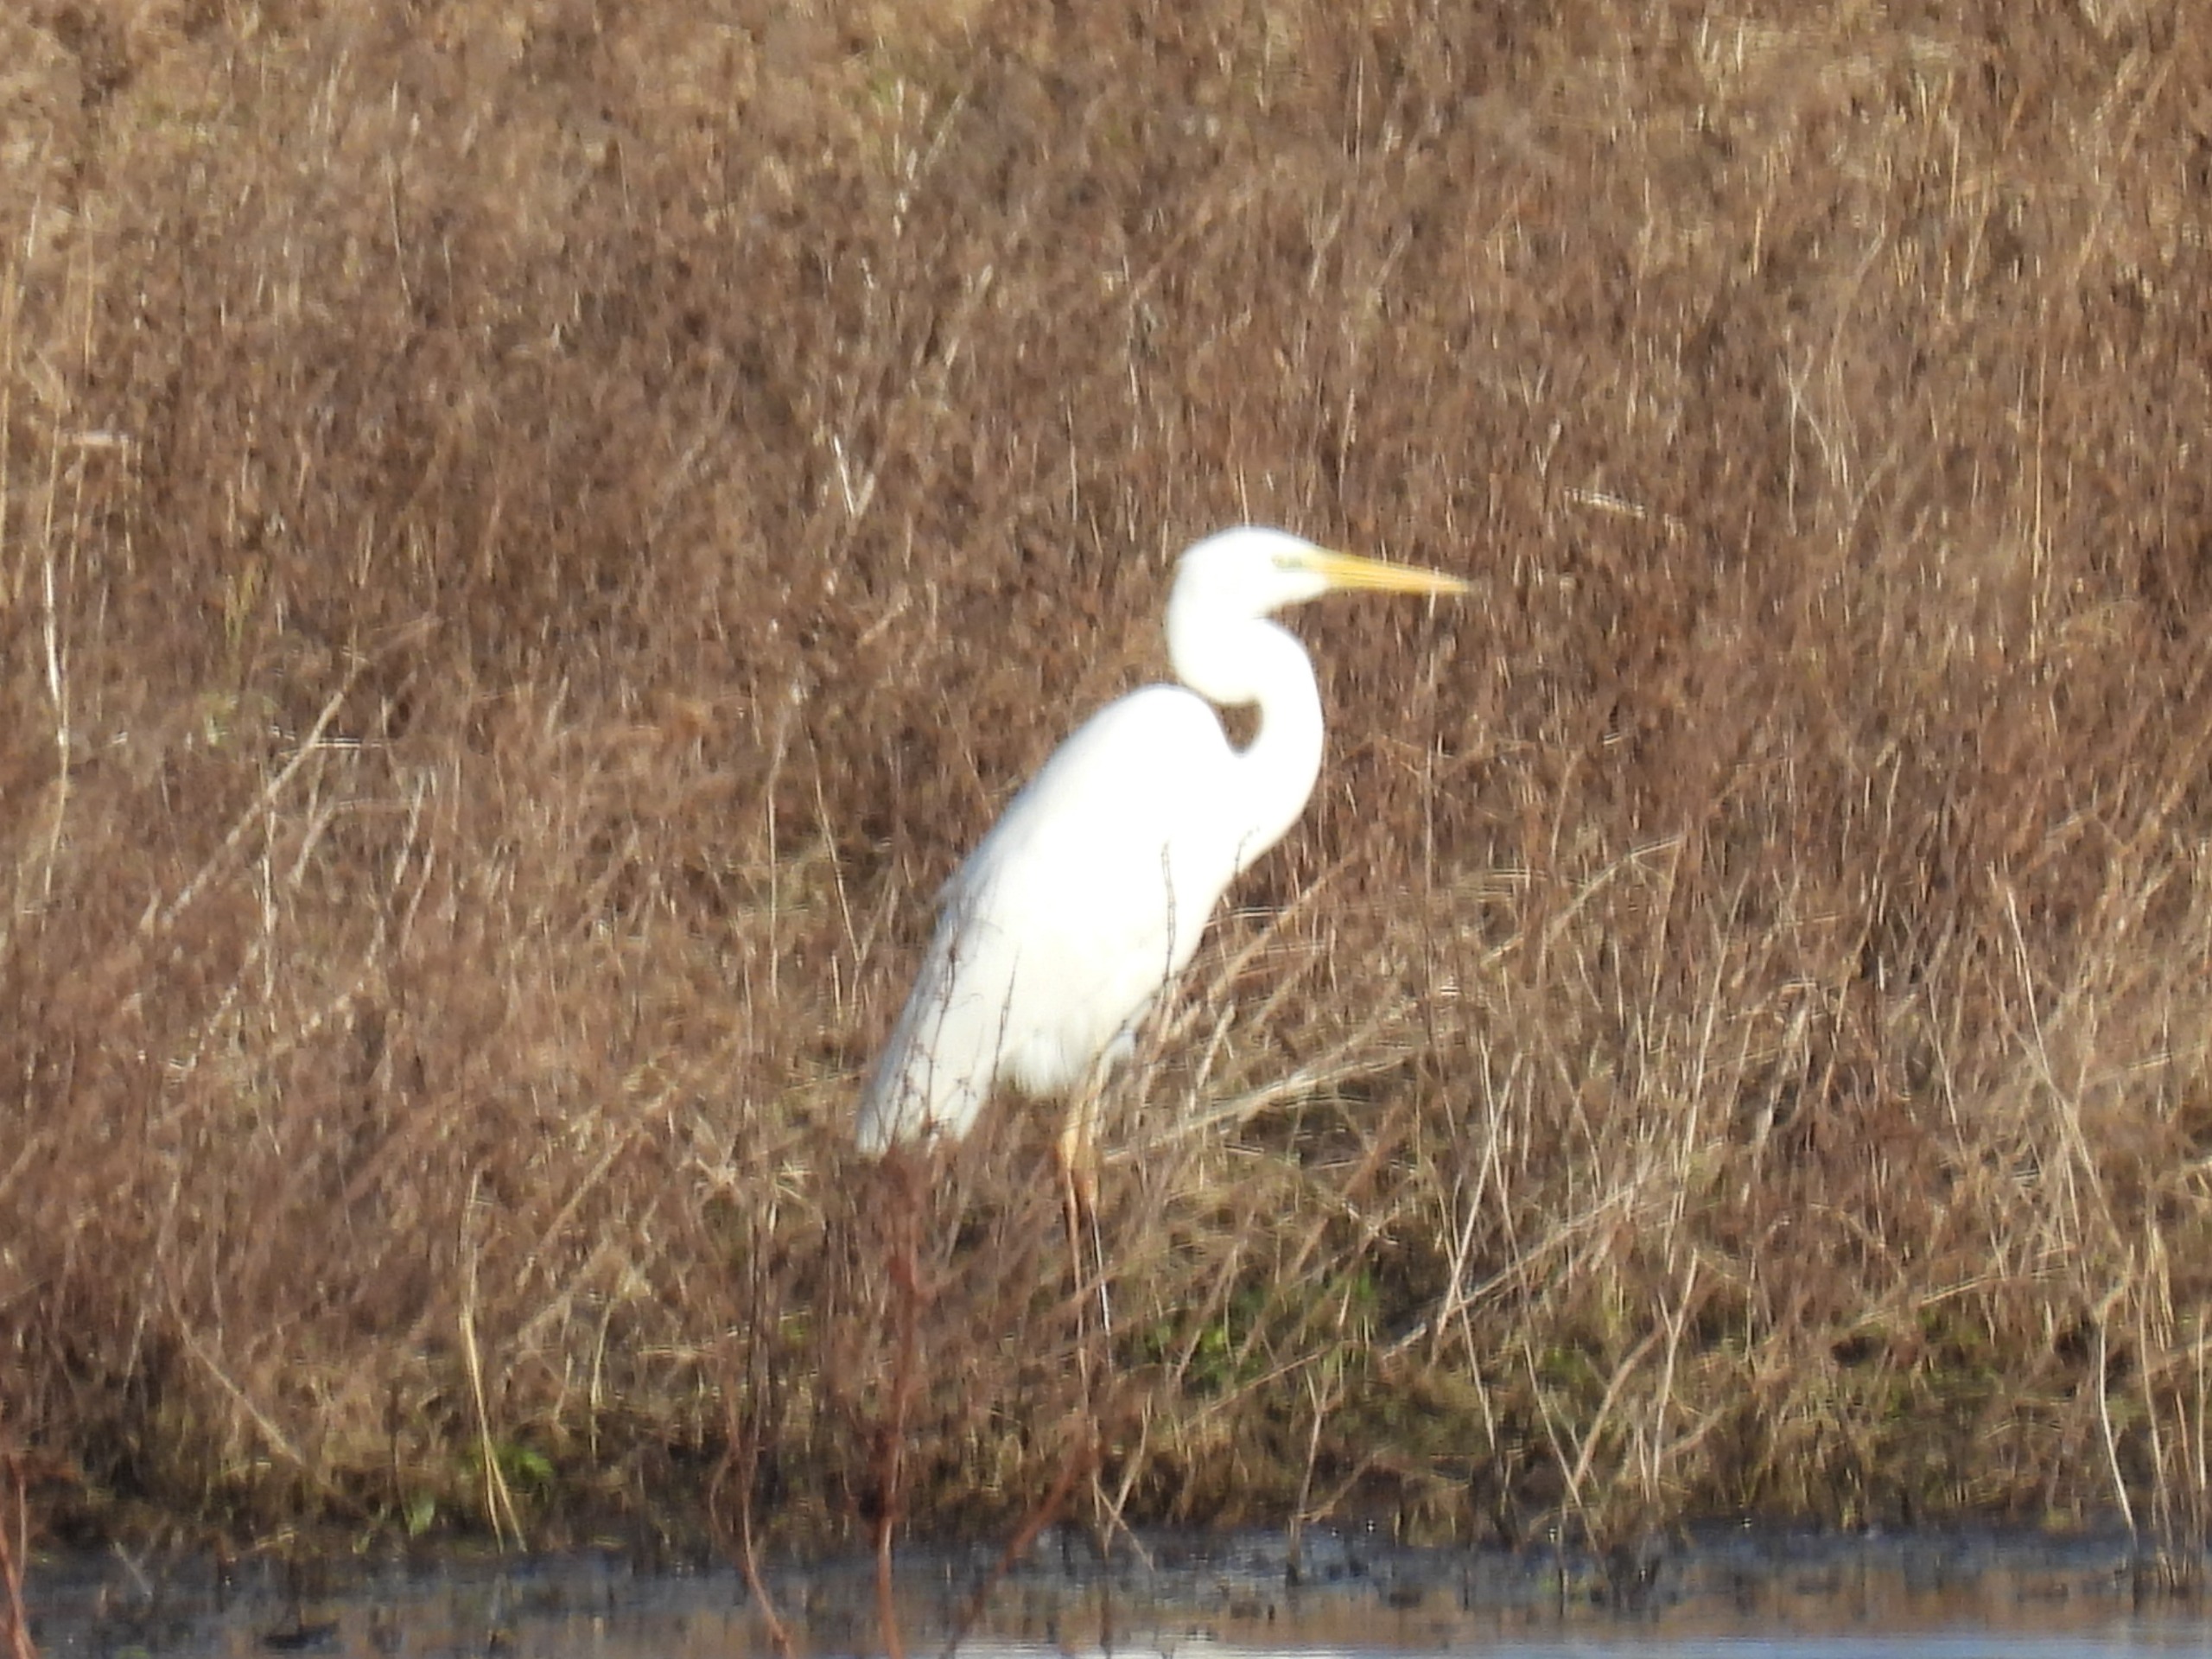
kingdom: Animalia
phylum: Chordata
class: Aves
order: Pelecaniformes
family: Ardeidae
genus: Ardea
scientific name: Ardea alba
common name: Sølvhejre
